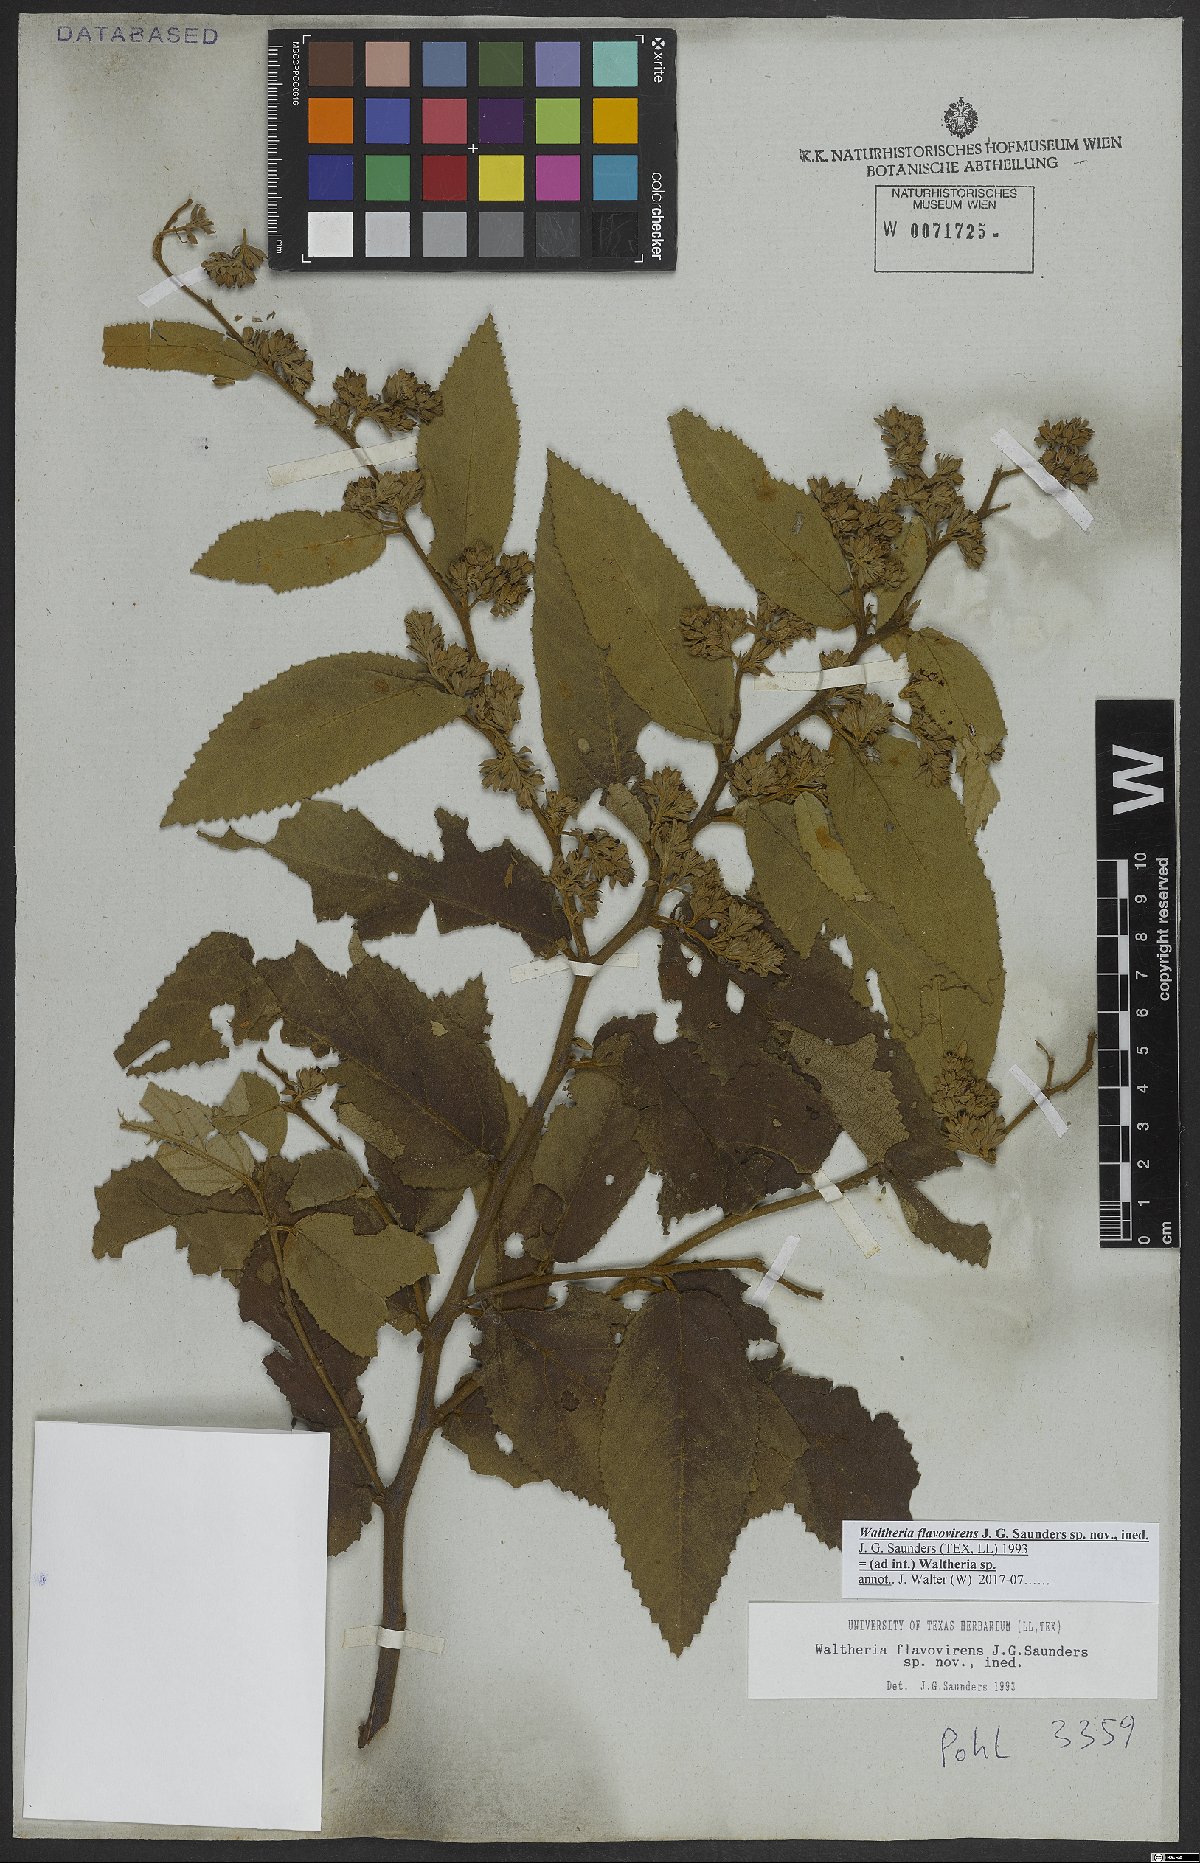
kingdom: Plantae
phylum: Tracheophyta
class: Magnoliopsida
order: Malvales
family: Malvaceae
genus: Waltheria
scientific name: Waltheria
